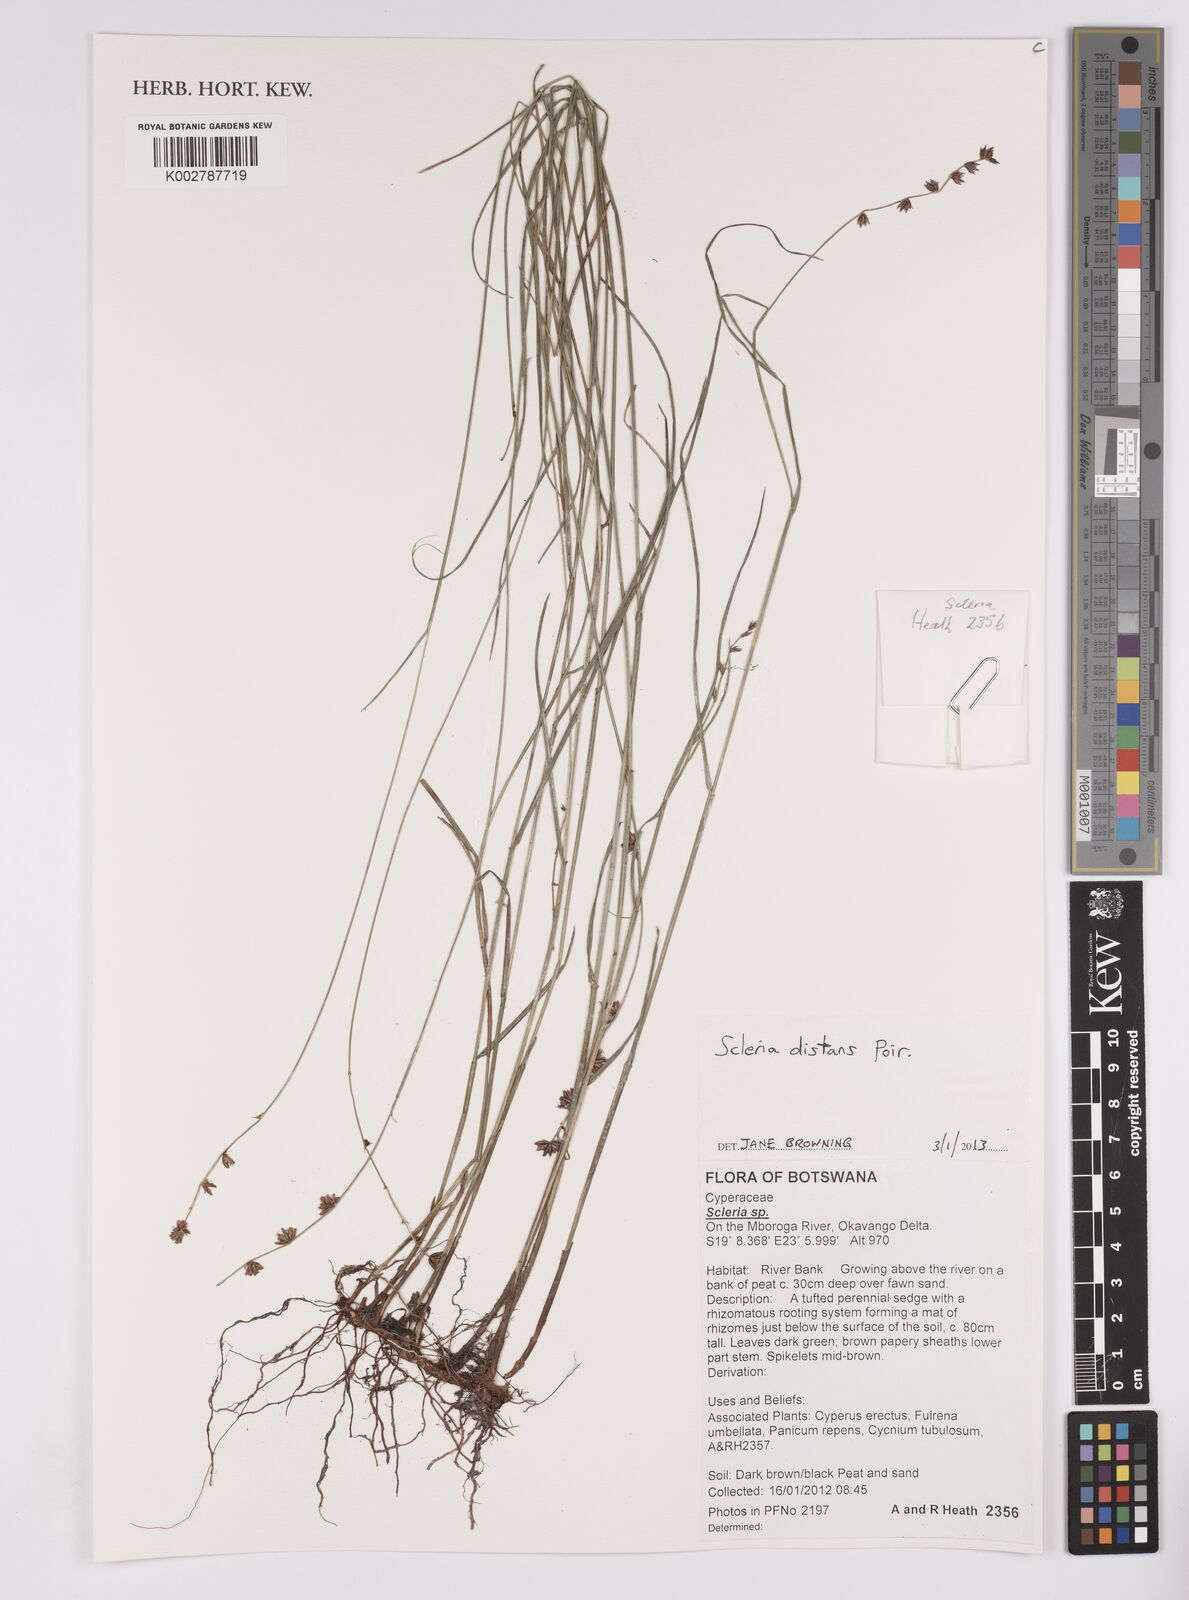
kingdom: Plantae
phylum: Tracheophyta
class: Liliopsida
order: Poales
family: Cyperaceae
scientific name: Cyperaceae
